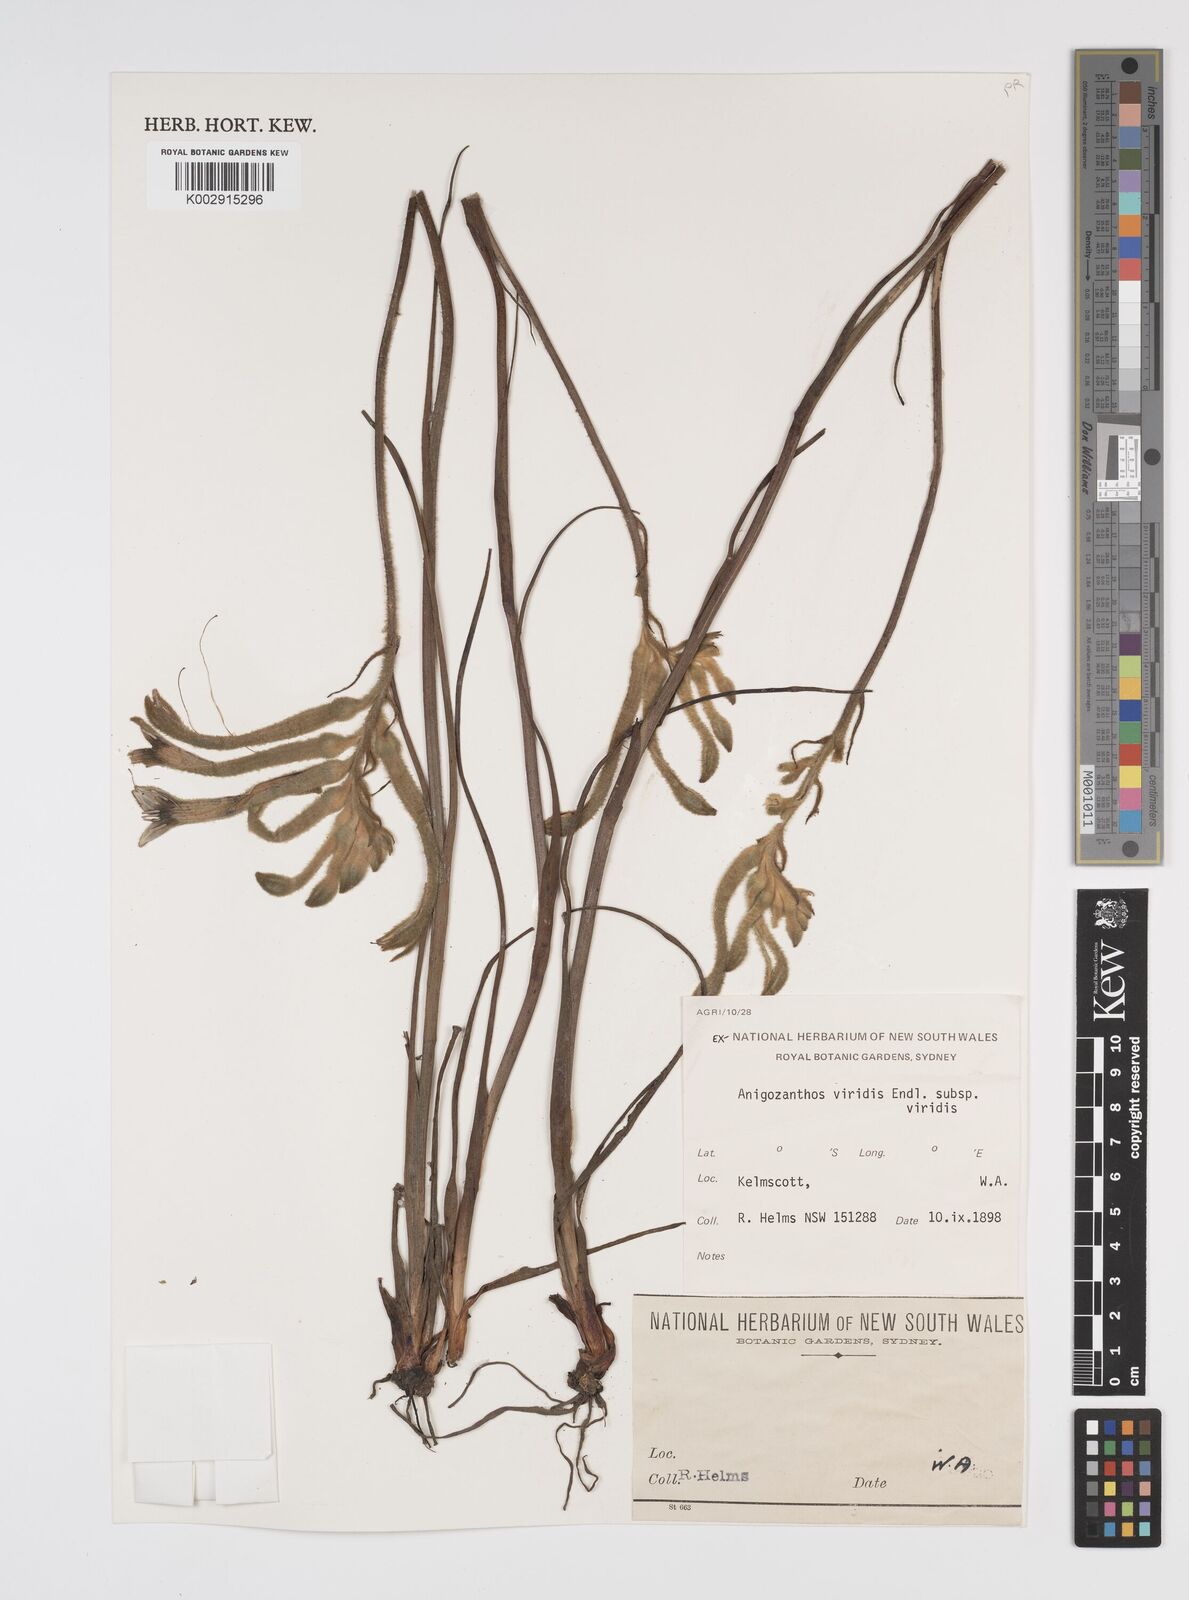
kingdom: Plantae
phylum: Tracheophyta
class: Liliopsida
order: Commelinales
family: Haemodoraceae
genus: Anigozanthos
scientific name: Anigozanthos viridis
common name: Green kangaroo-paw
